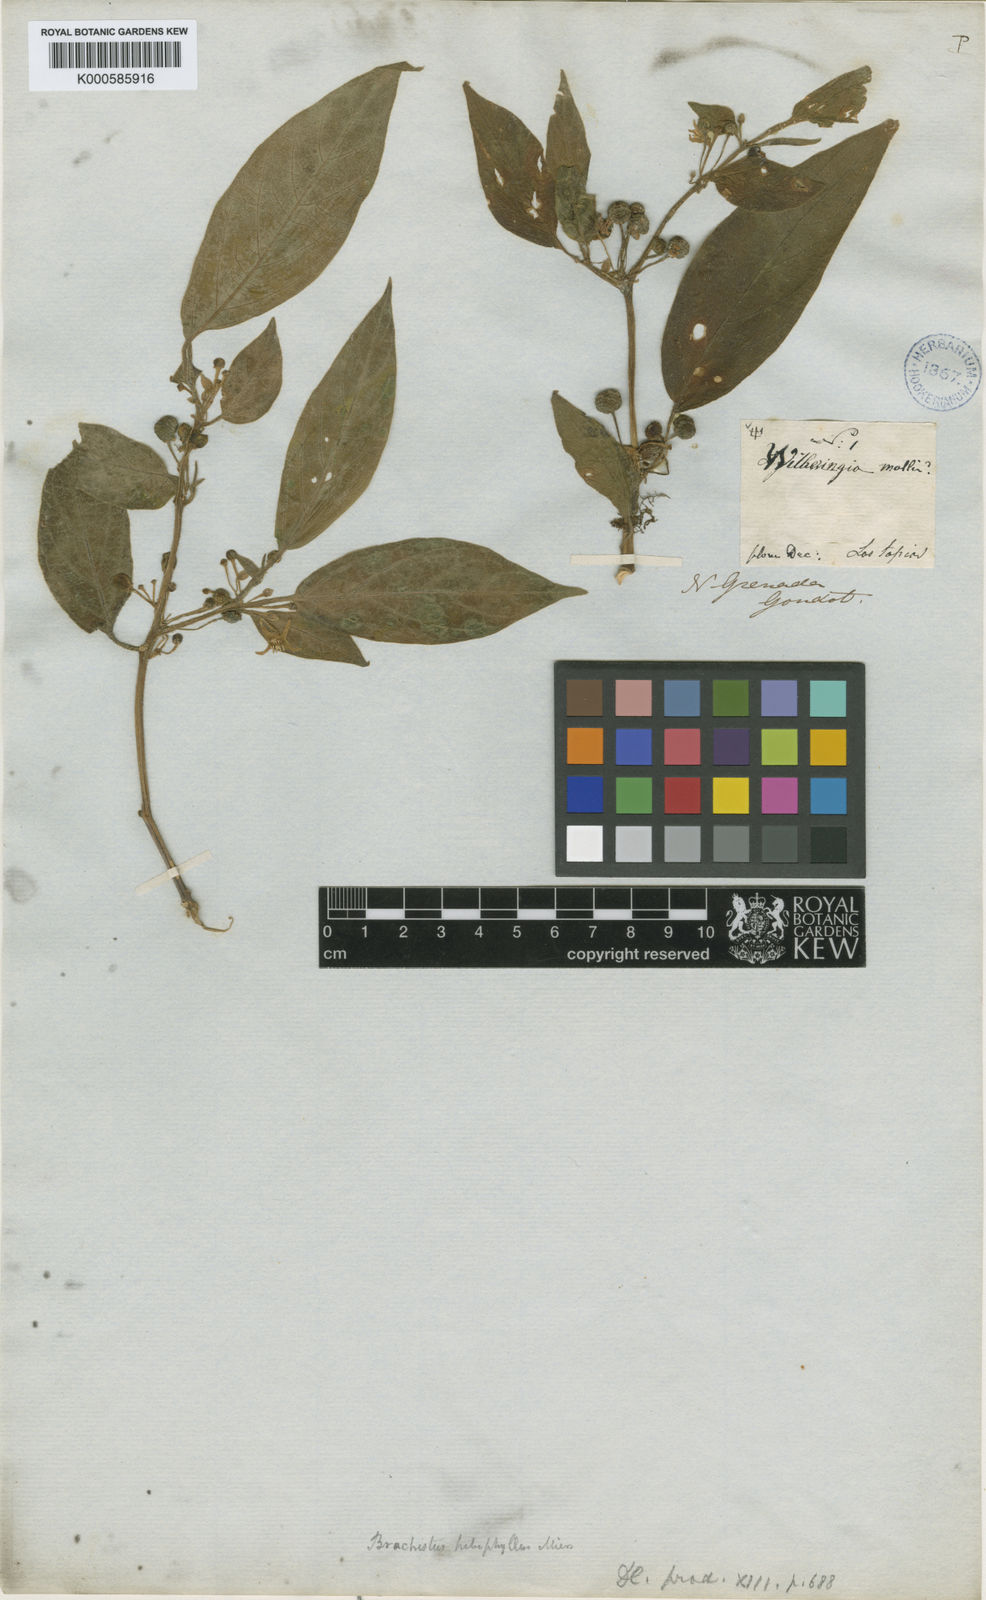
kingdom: Plantae
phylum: Tracheophyta
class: Magnoliopsida
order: Solanales
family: Solanaceae
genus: Witheringia
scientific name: Witheringia
